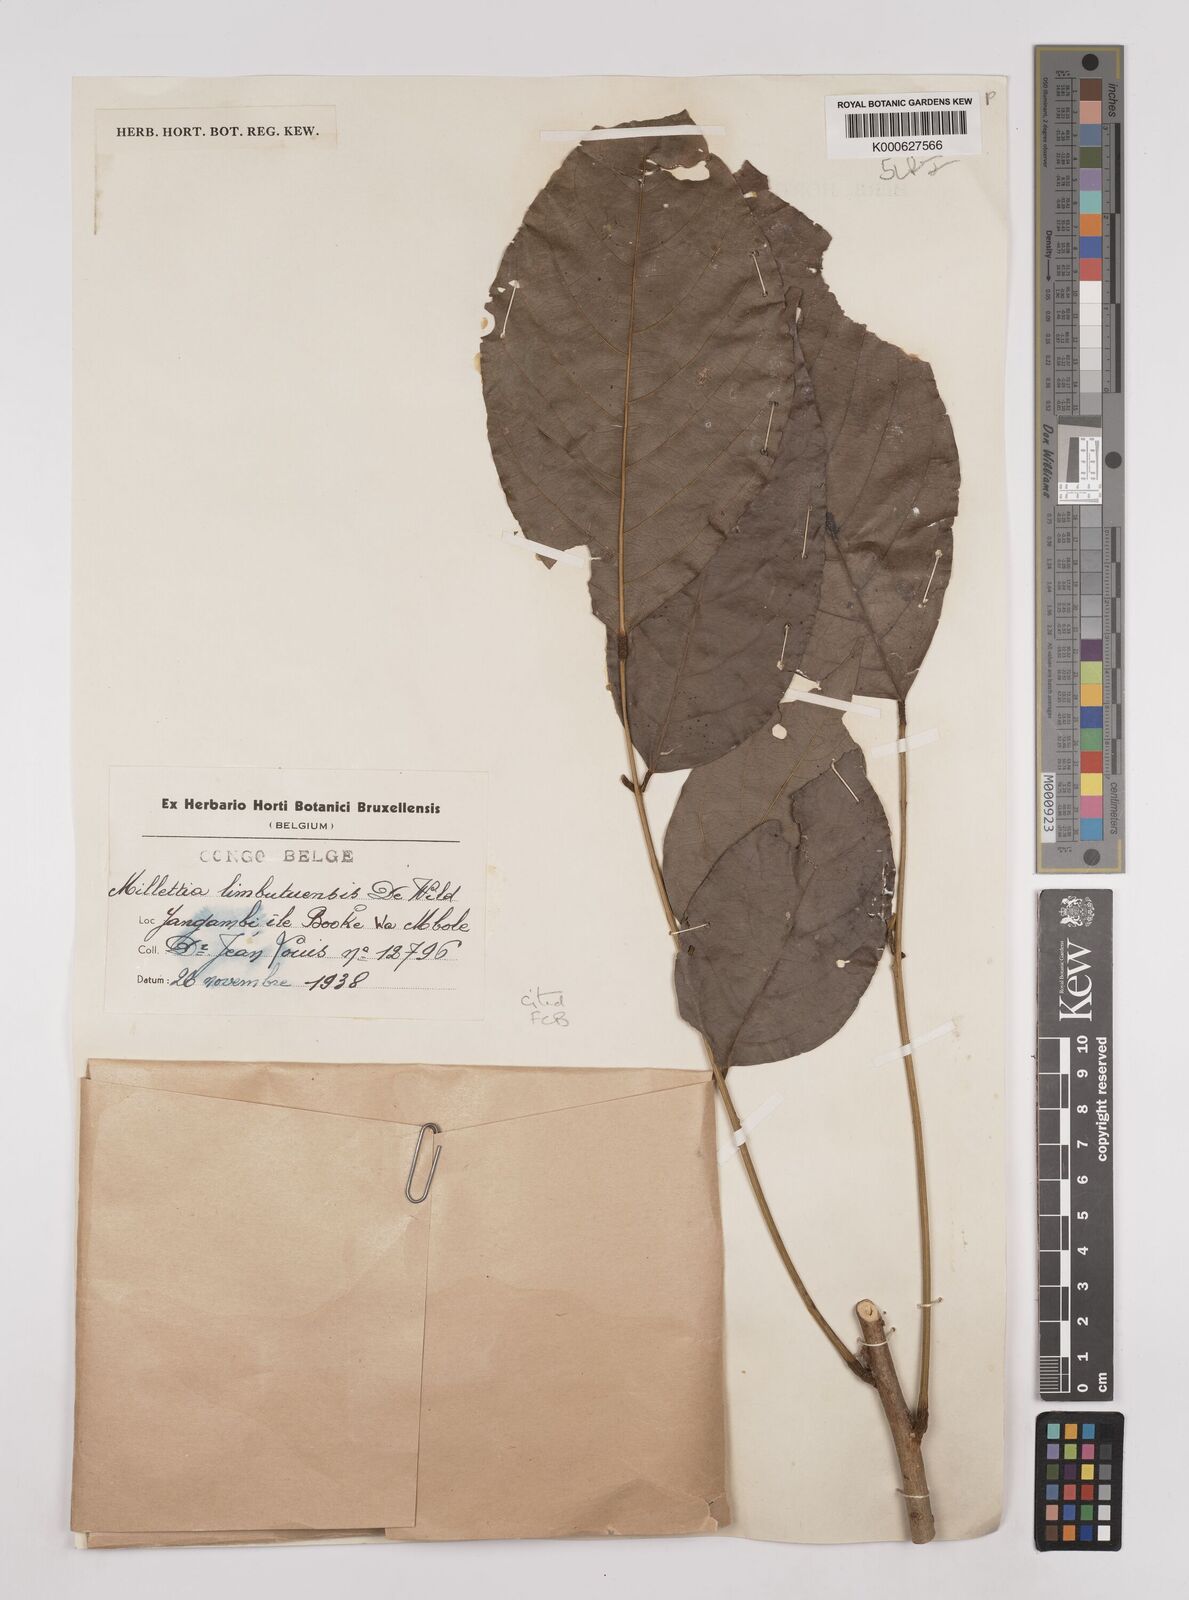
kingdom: Plantae
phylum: Tracheophyta
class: Magnoliopsida
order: Fabales
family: Fabaceae
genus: Millettia
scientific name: Millettia limbutuensis
